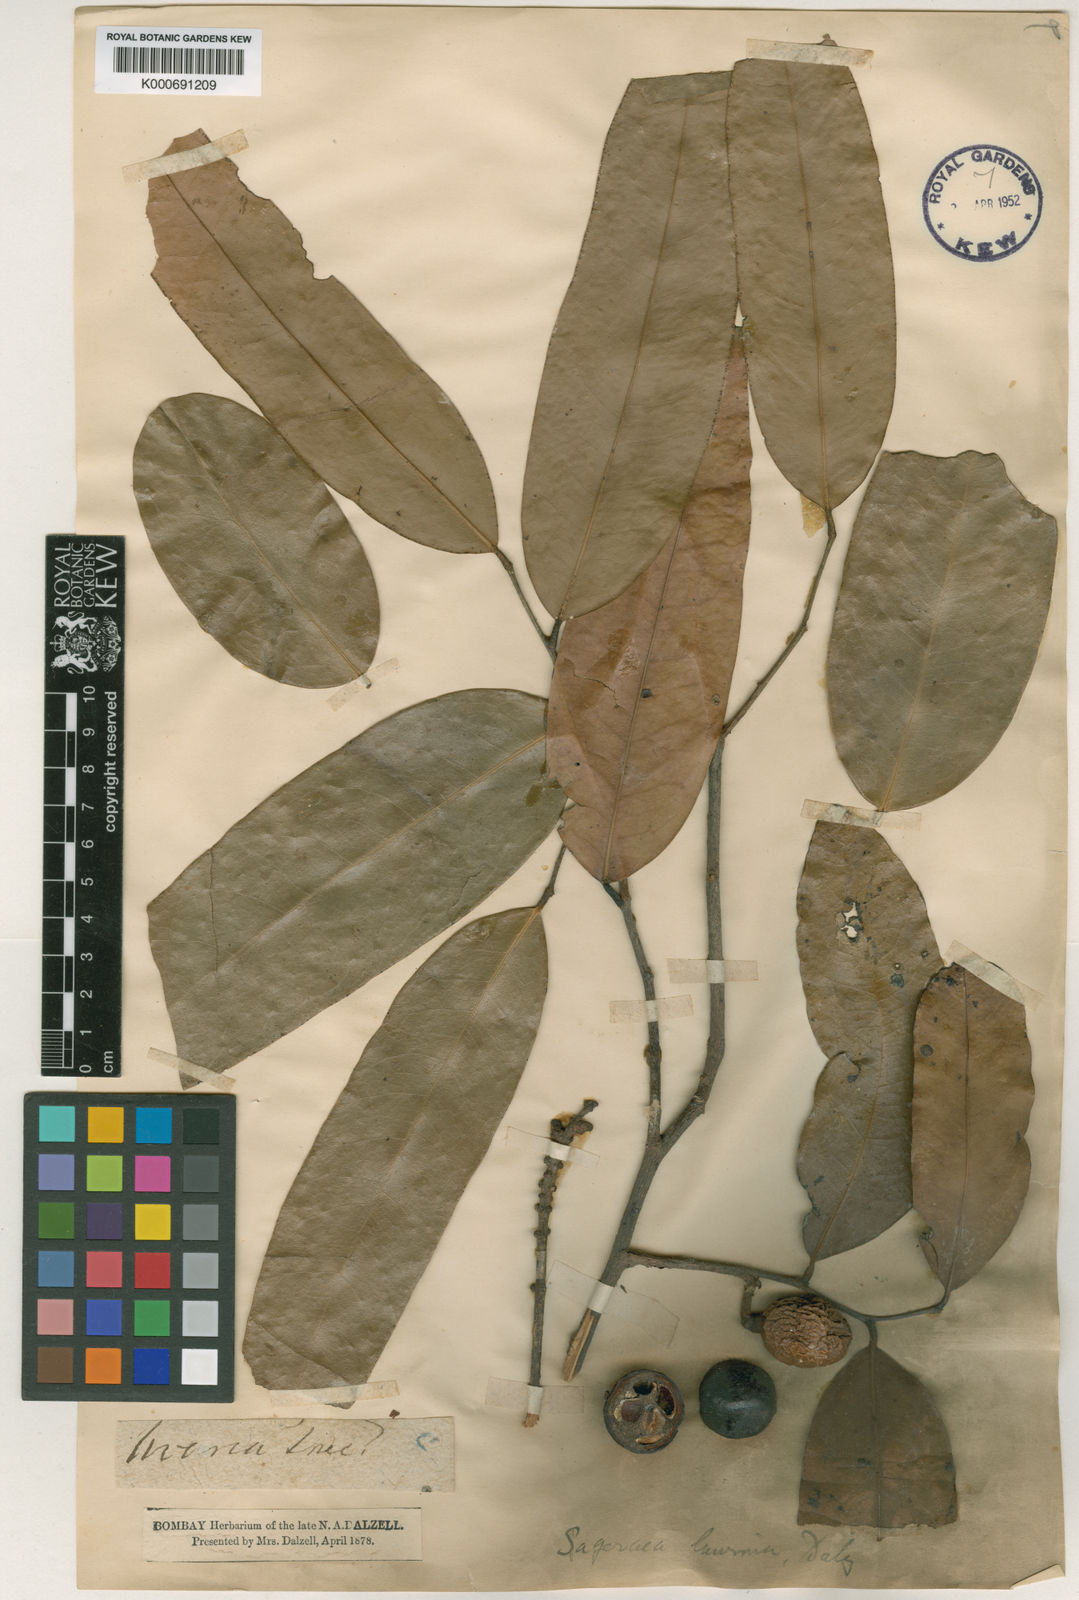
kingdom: Plantae
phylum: Tracheophyta
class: Magnoliopsida
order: Magnoliales
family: Annonaceae
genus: Sageraea
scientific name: Sageraea laurina
